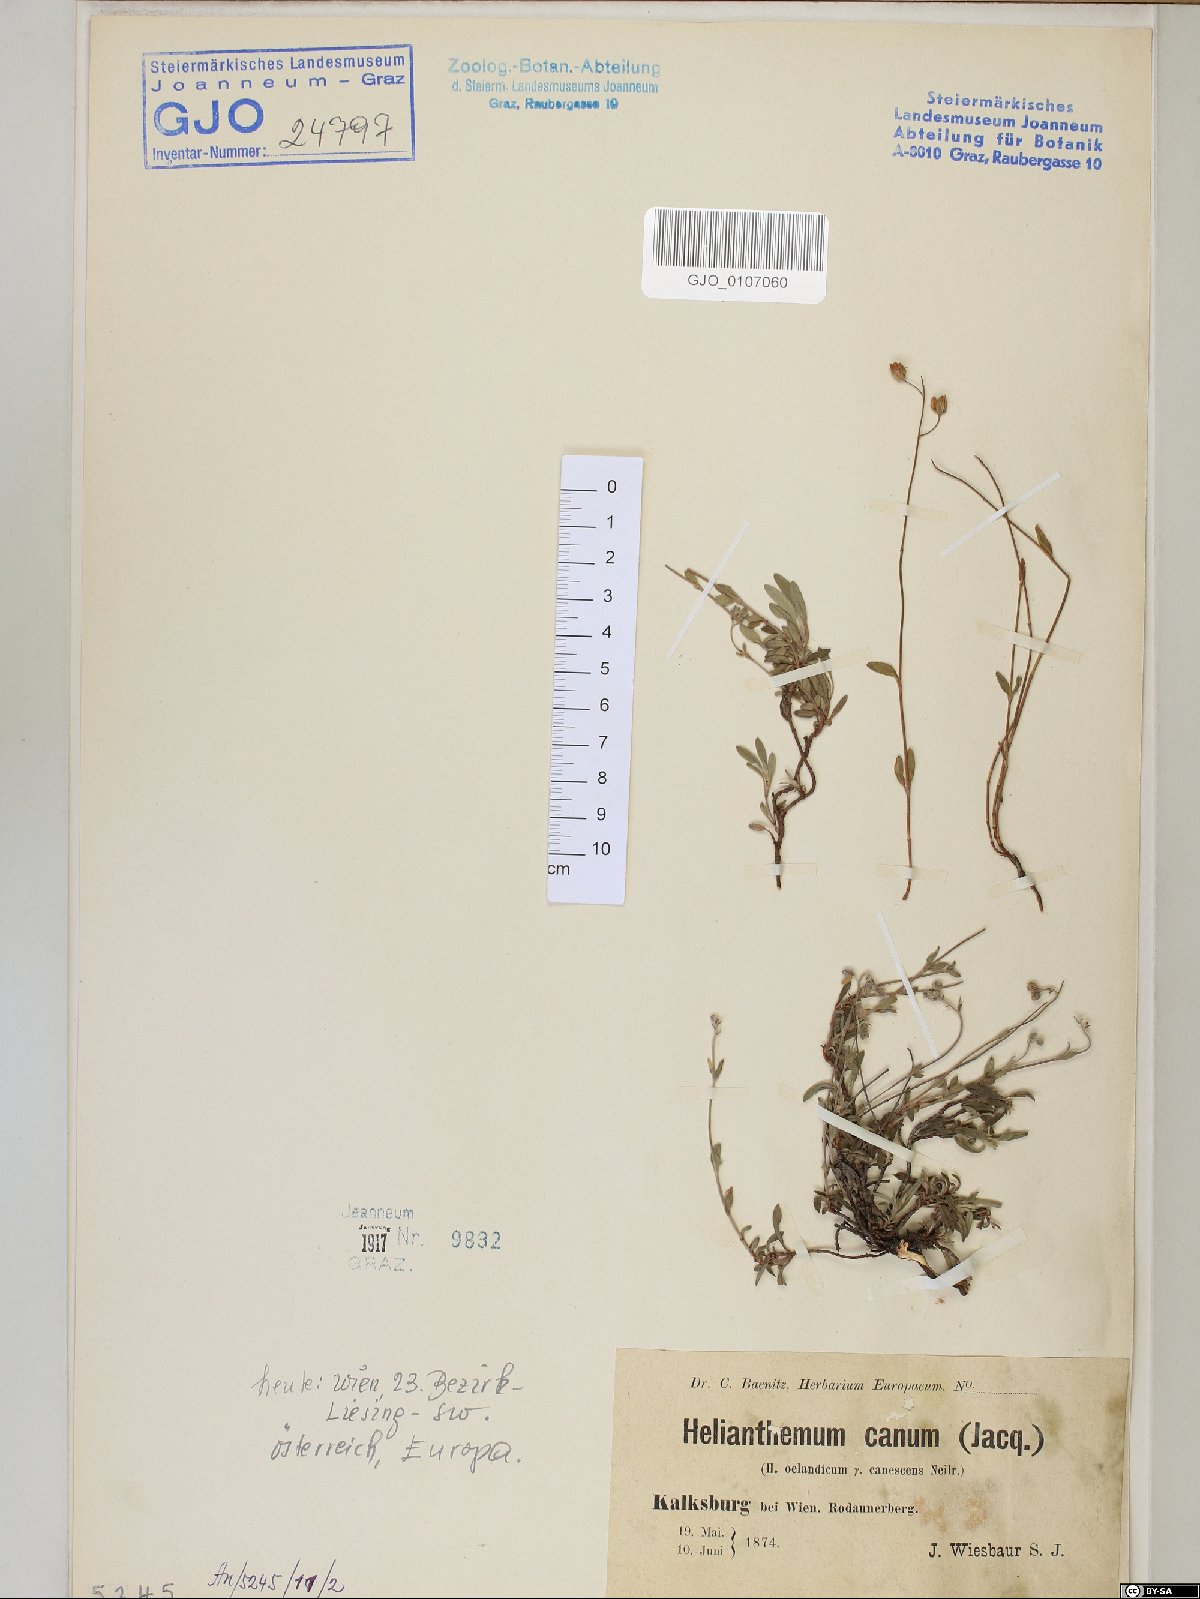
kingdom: Plantae
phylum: Tracheophyta
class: Magnoliopsida
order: Malvales
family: Cistaceae
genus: Helianthemum
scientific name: Helianthemum canum
